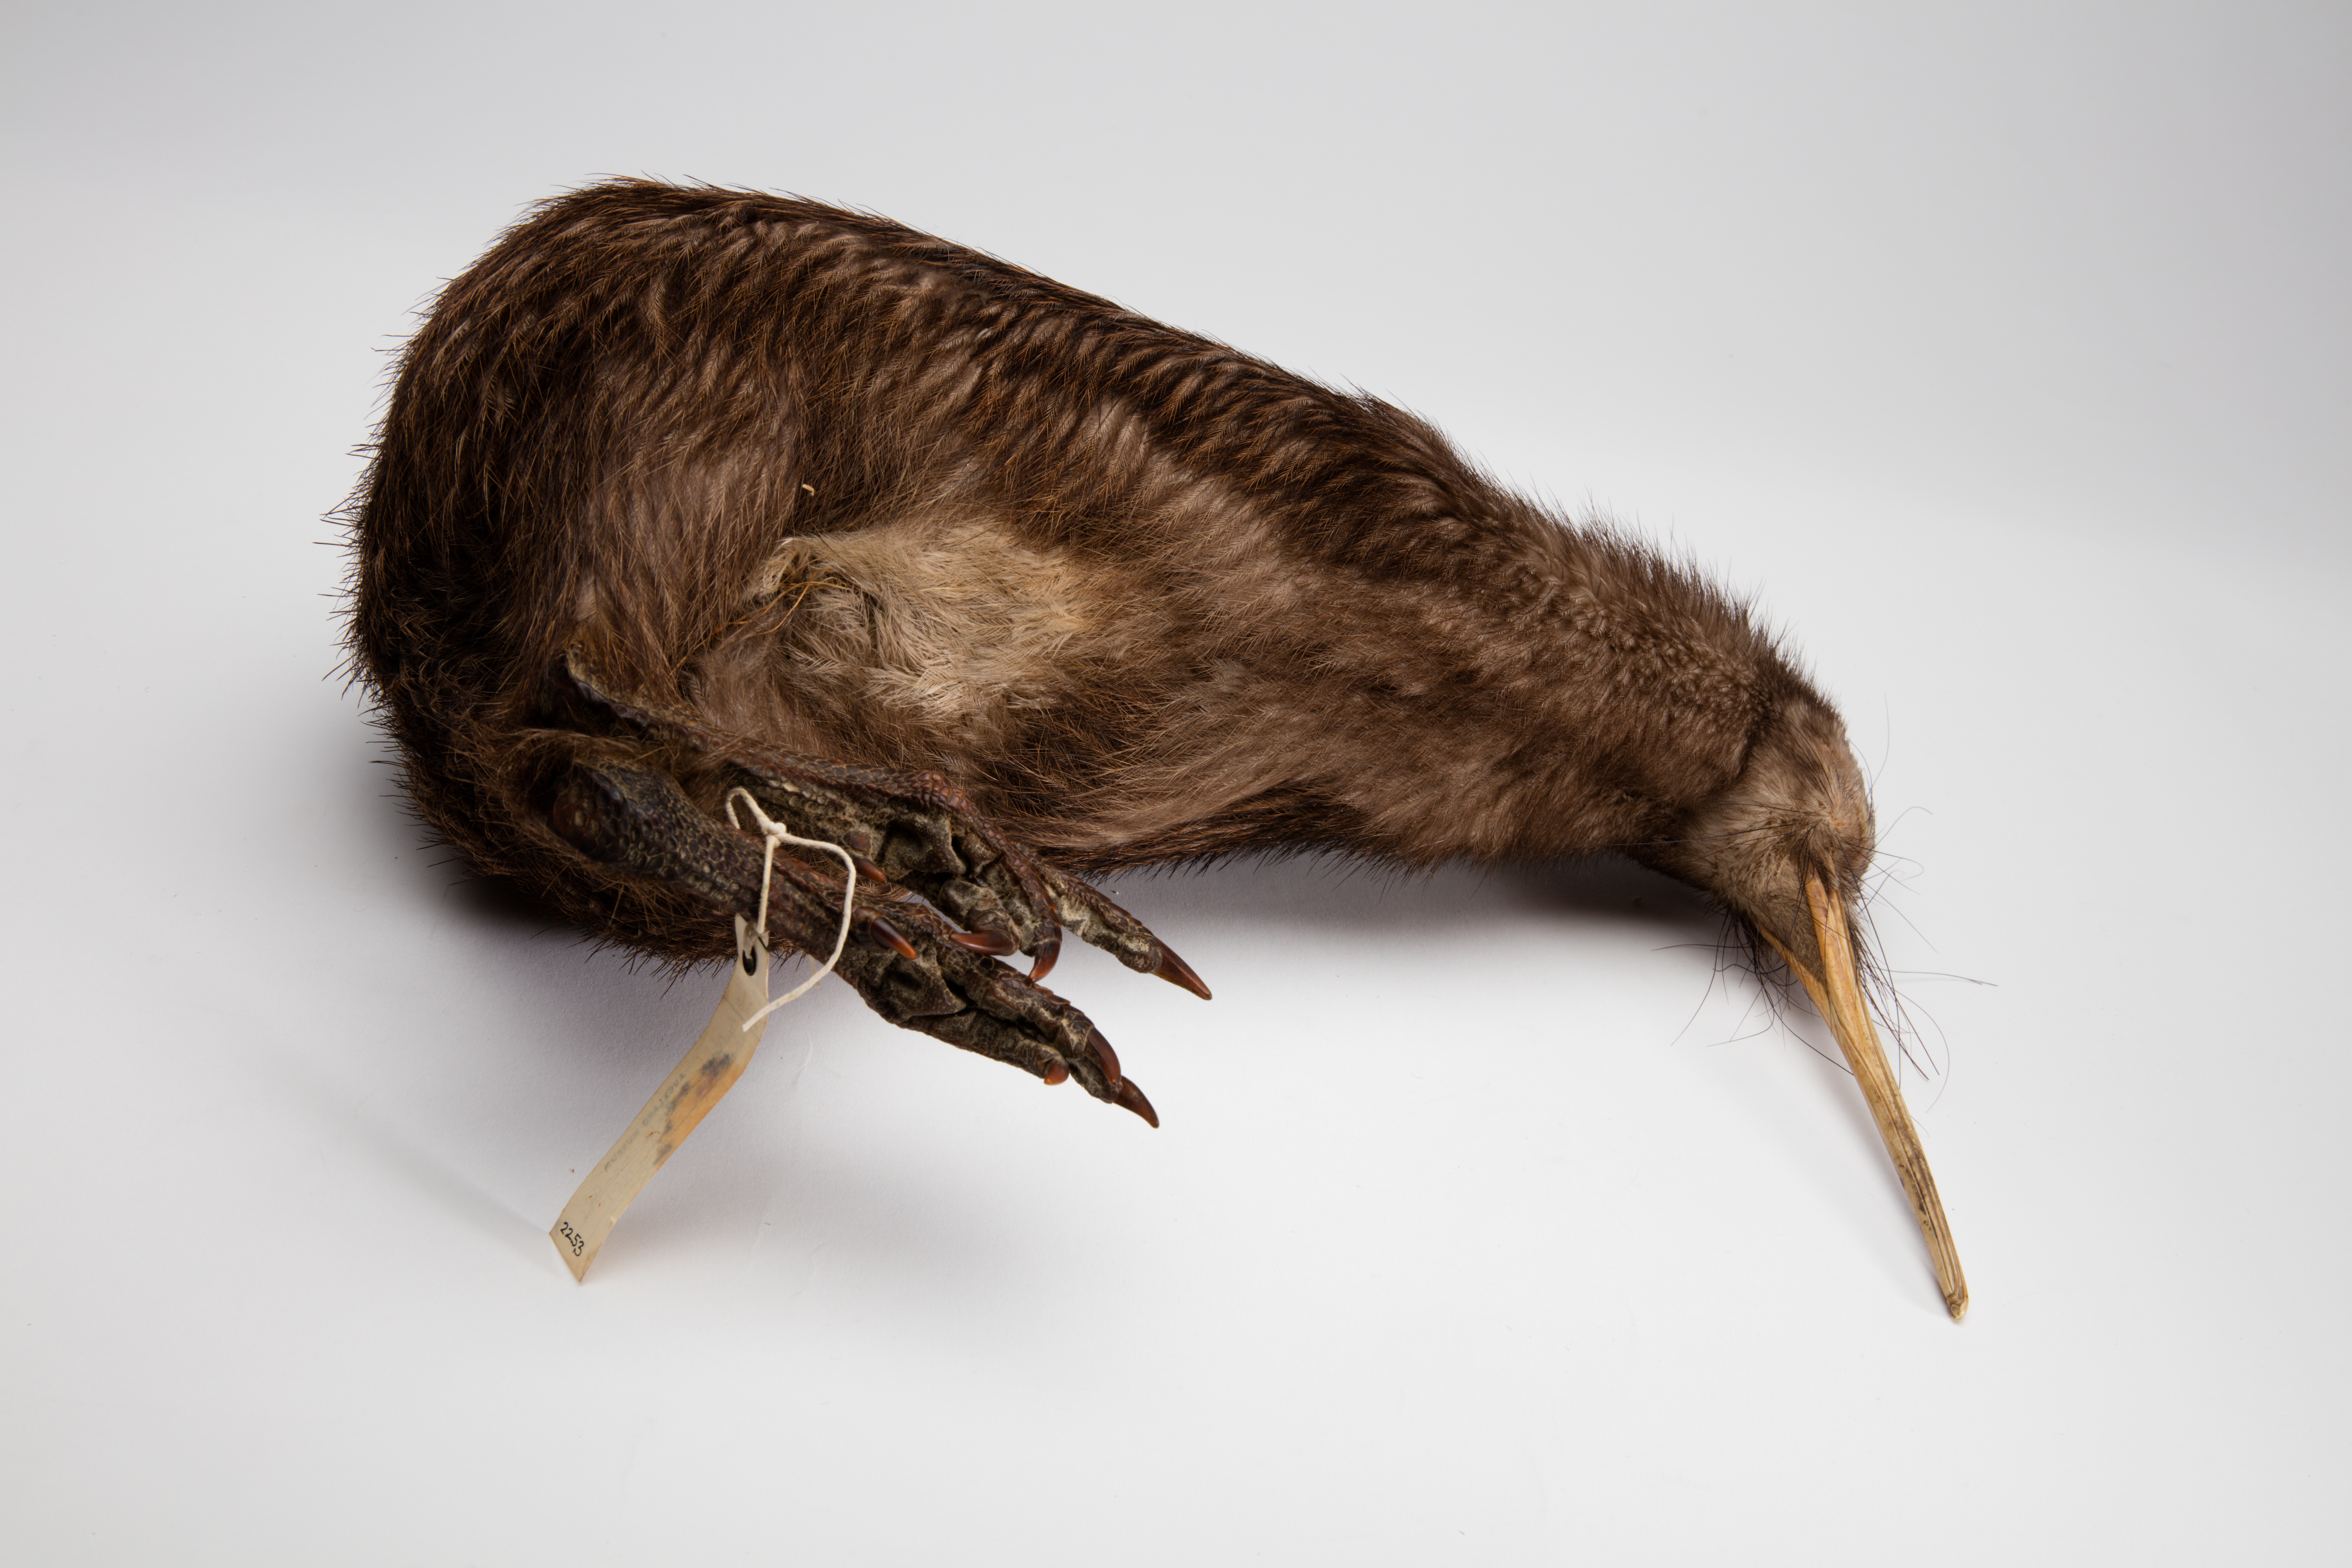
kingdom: Animalia
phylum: Chordata
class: Aves
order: Apterygiformes
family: Apterygidae
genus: Apteryx
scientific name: Apteryx mantelli
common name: North island brown kiwi
